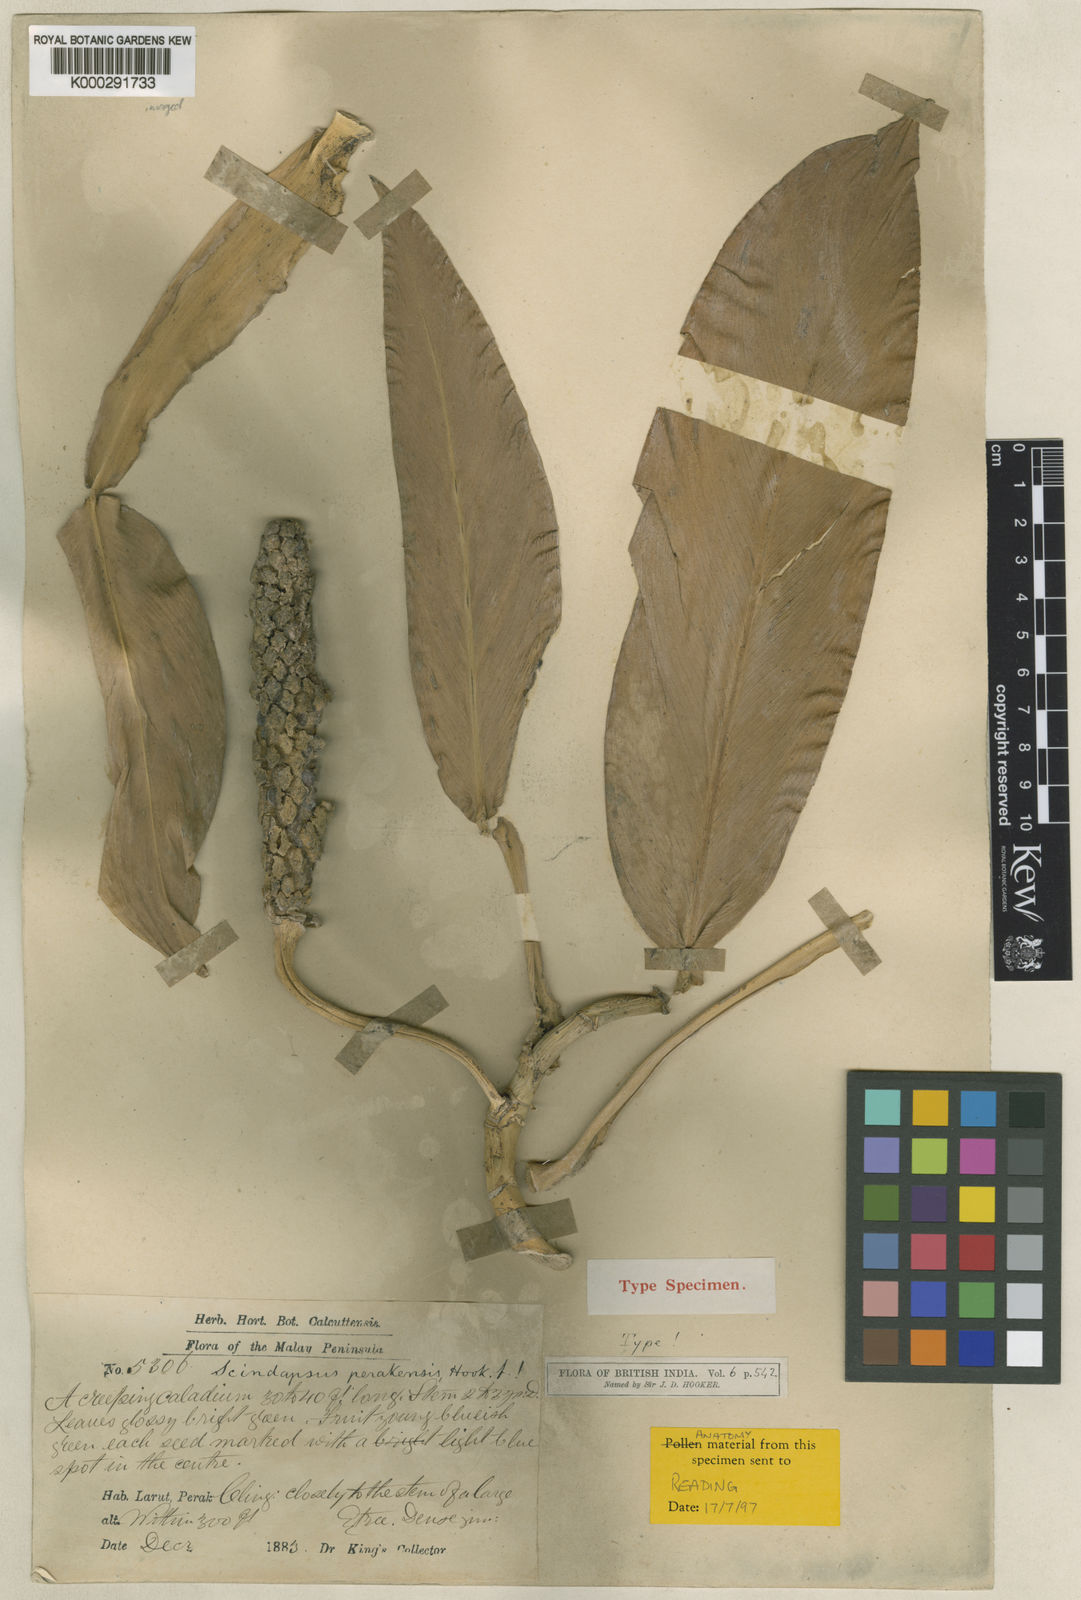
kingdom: Plantae
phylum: Tracheophyta
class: Liliopsida
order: Alismatales
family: Araceae
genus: Scindapsus
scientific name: Scindapsus perakensis
